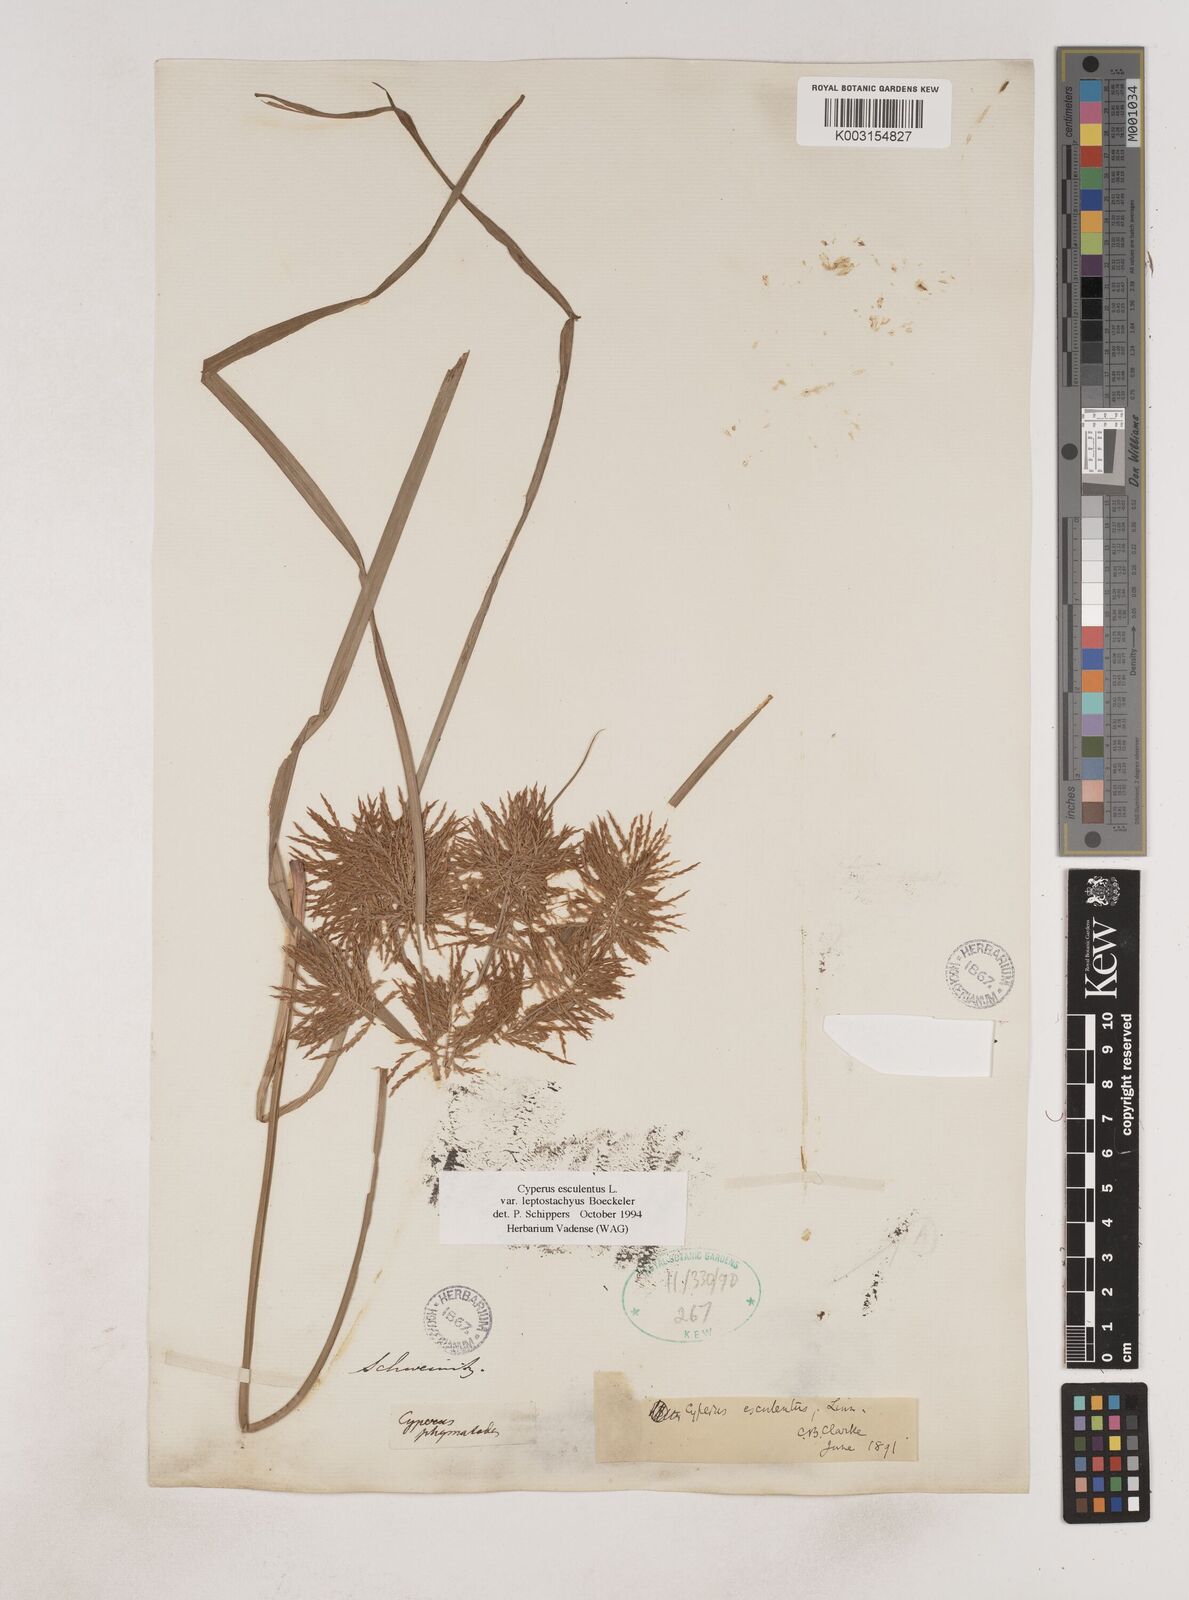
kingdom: Plantae
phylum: Tracheophyta
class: Liliopsida
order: Poales
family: Cyperaceae
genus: Cyperus
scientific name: Cyperus esculentus
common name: Yellow nutsedge
